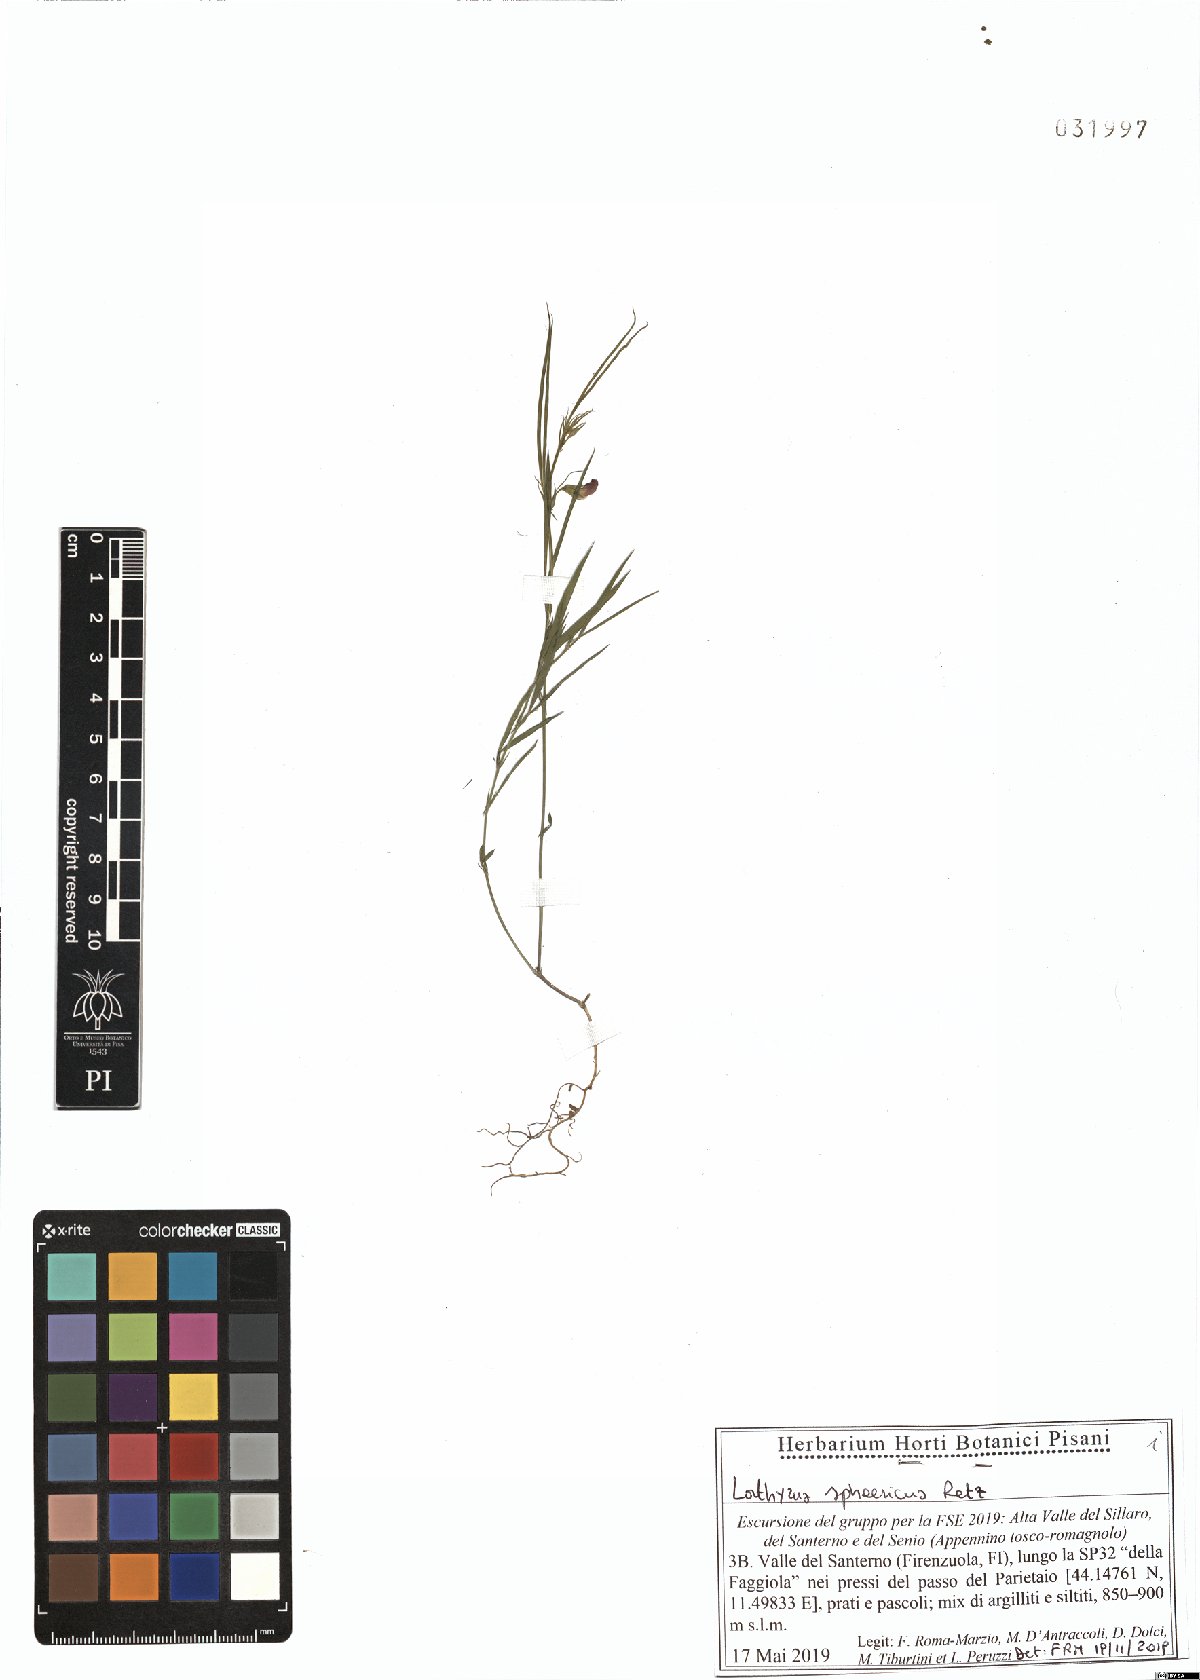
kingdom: Plantae
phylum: Tracheophyta
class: Magnoliopsida
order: Fabales
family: Fabaceae
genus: Lathyrus
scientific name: Lathyrus sphaericus
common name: Grass pea
